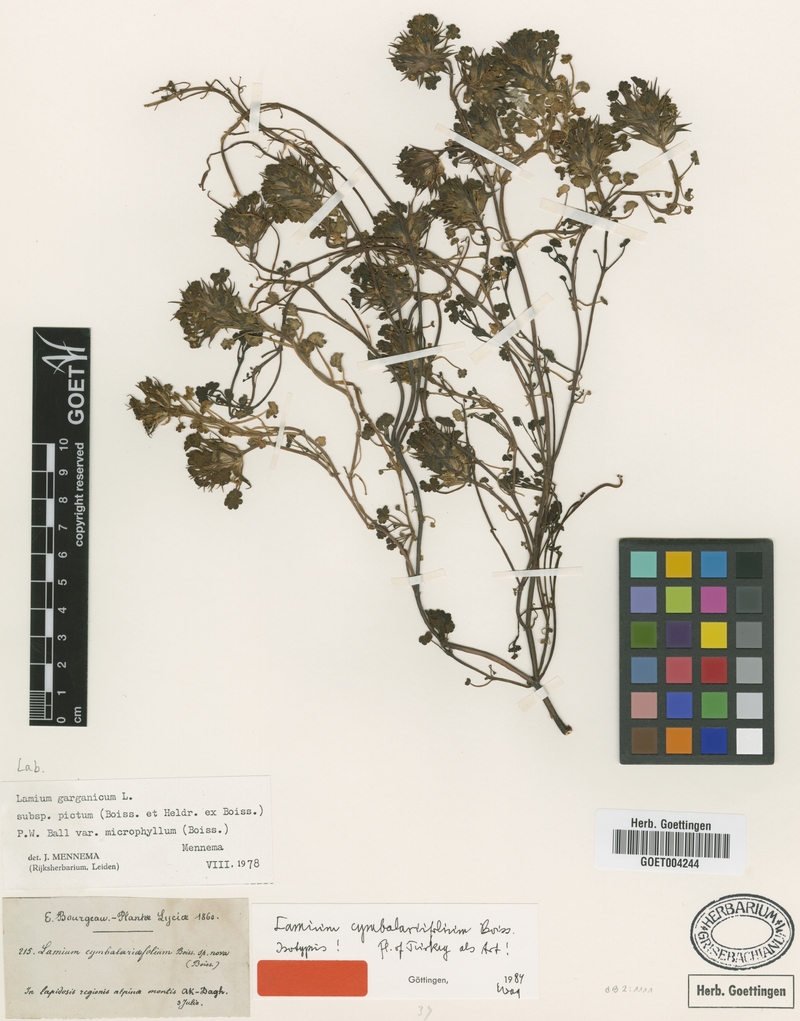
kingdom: Plantae
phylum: Tracheophyta
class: Magnoliopsida
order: Lamiales
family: Lamiaceae
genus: Lamium
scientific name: Lamium garganicum
